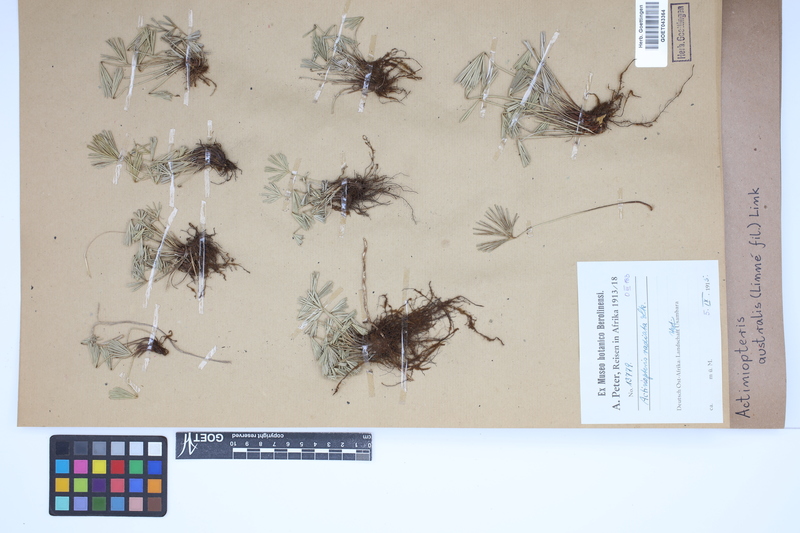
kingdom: Plantae
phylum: Tracheophyta
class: Polypodiopsida
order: Polypodiales
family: Pteridaceae
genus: Actiniopteris
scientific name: Actiniopteris australis
